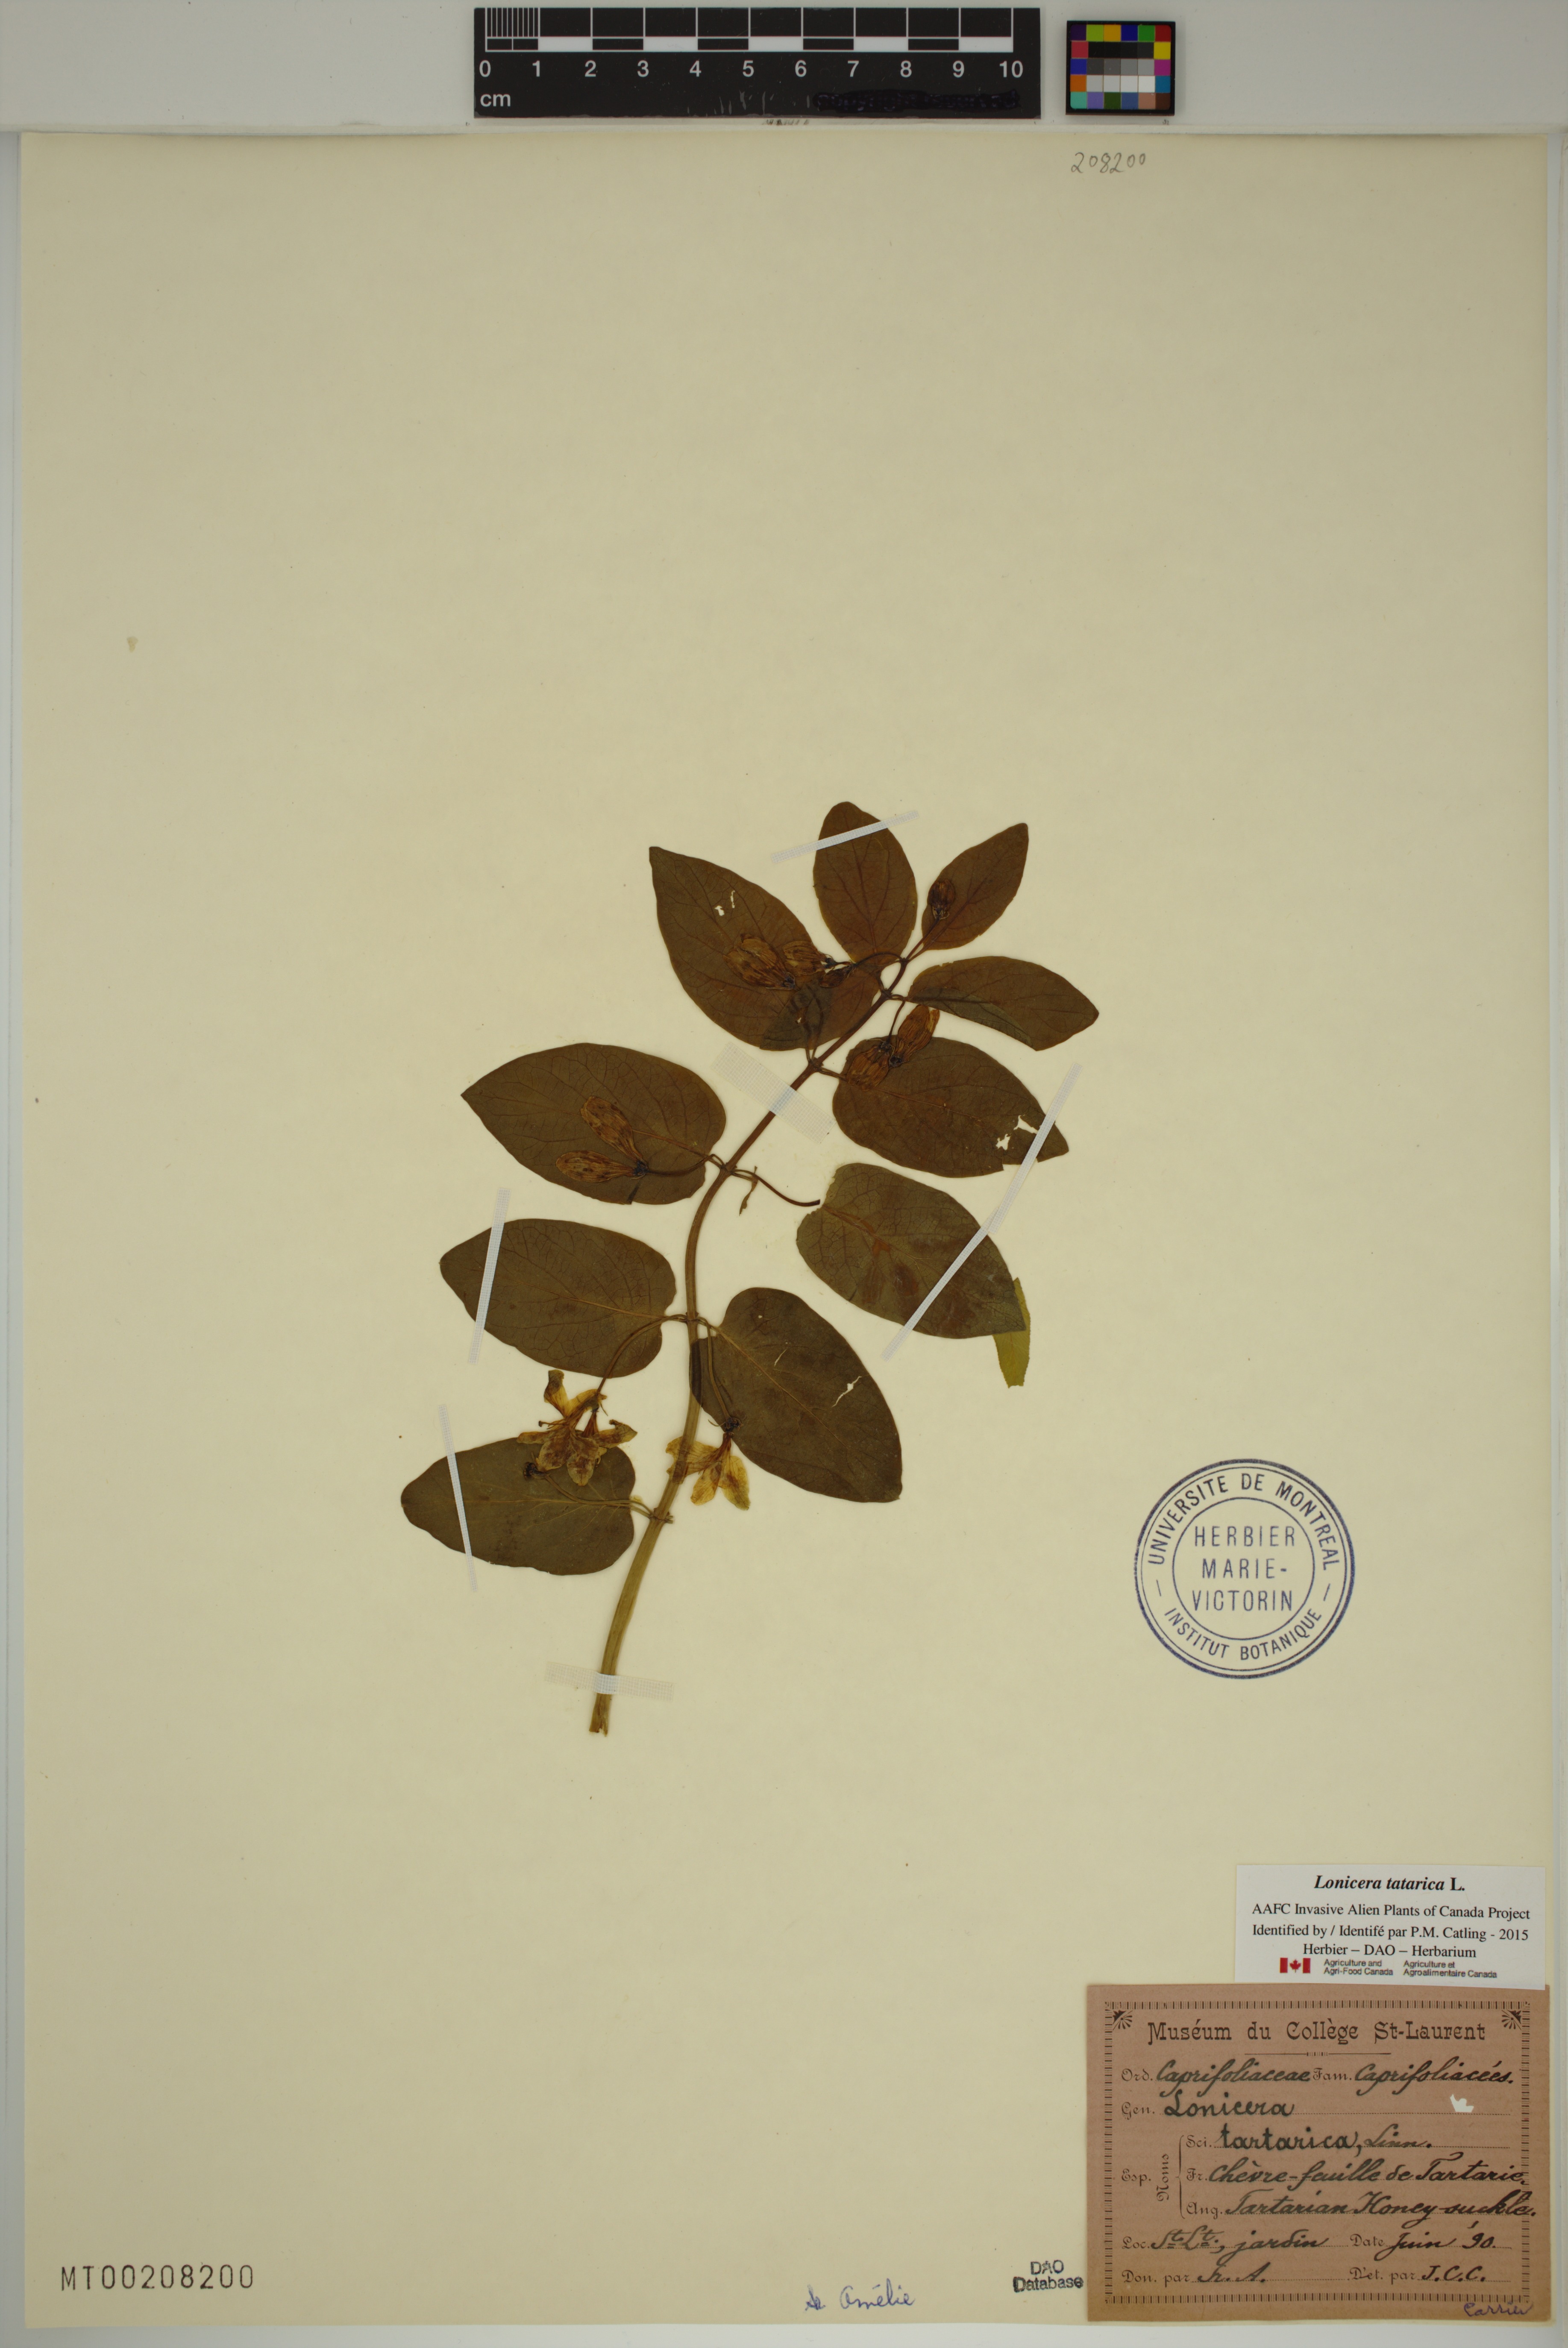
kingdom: Plantae
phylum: Tracheophyta
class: Magnoliopsida
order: Dipsacales
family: Caprifoliaceae
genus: Lonicera
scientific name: Lonicera tatarica
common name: Tatarian honeysuckle
